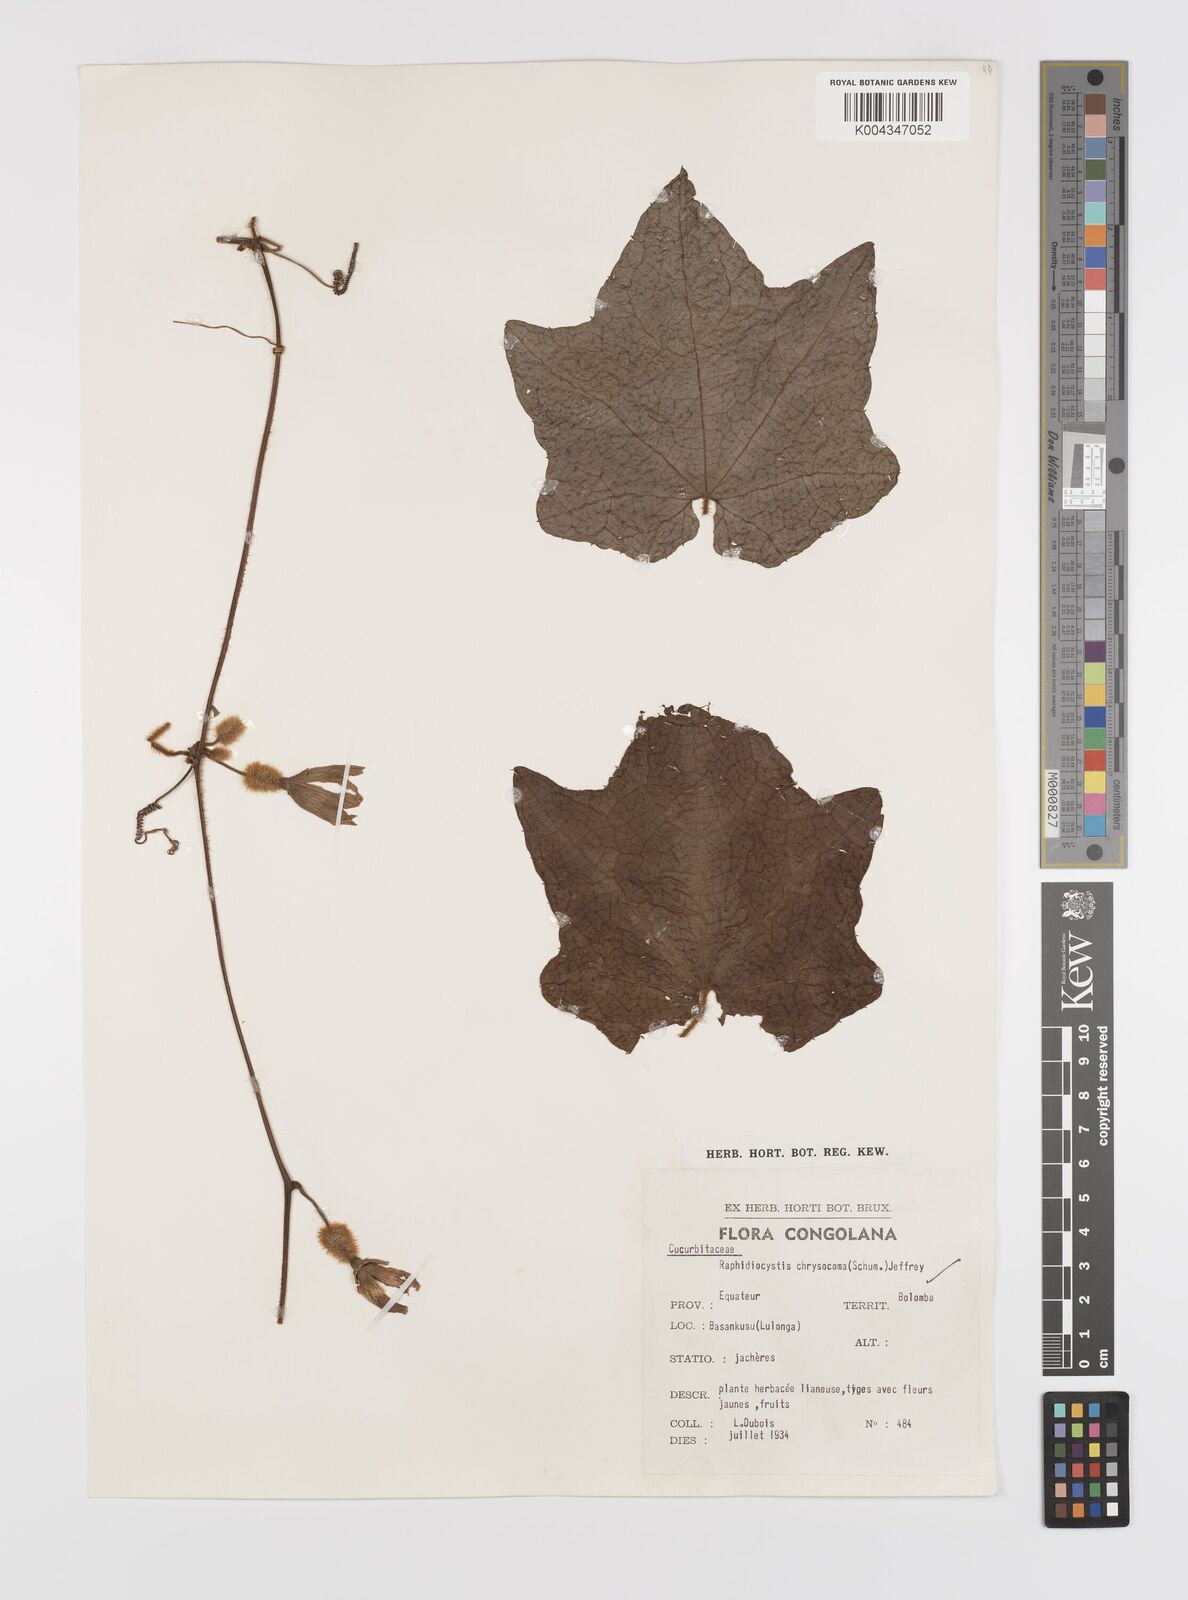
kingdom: Plantae
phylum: Tracheophyta
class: Magnoliopsida
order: Cucurbitales
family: Cucurbitaceae
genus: Raphidiocystis
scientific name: Raphidiocystis chrysocoma
